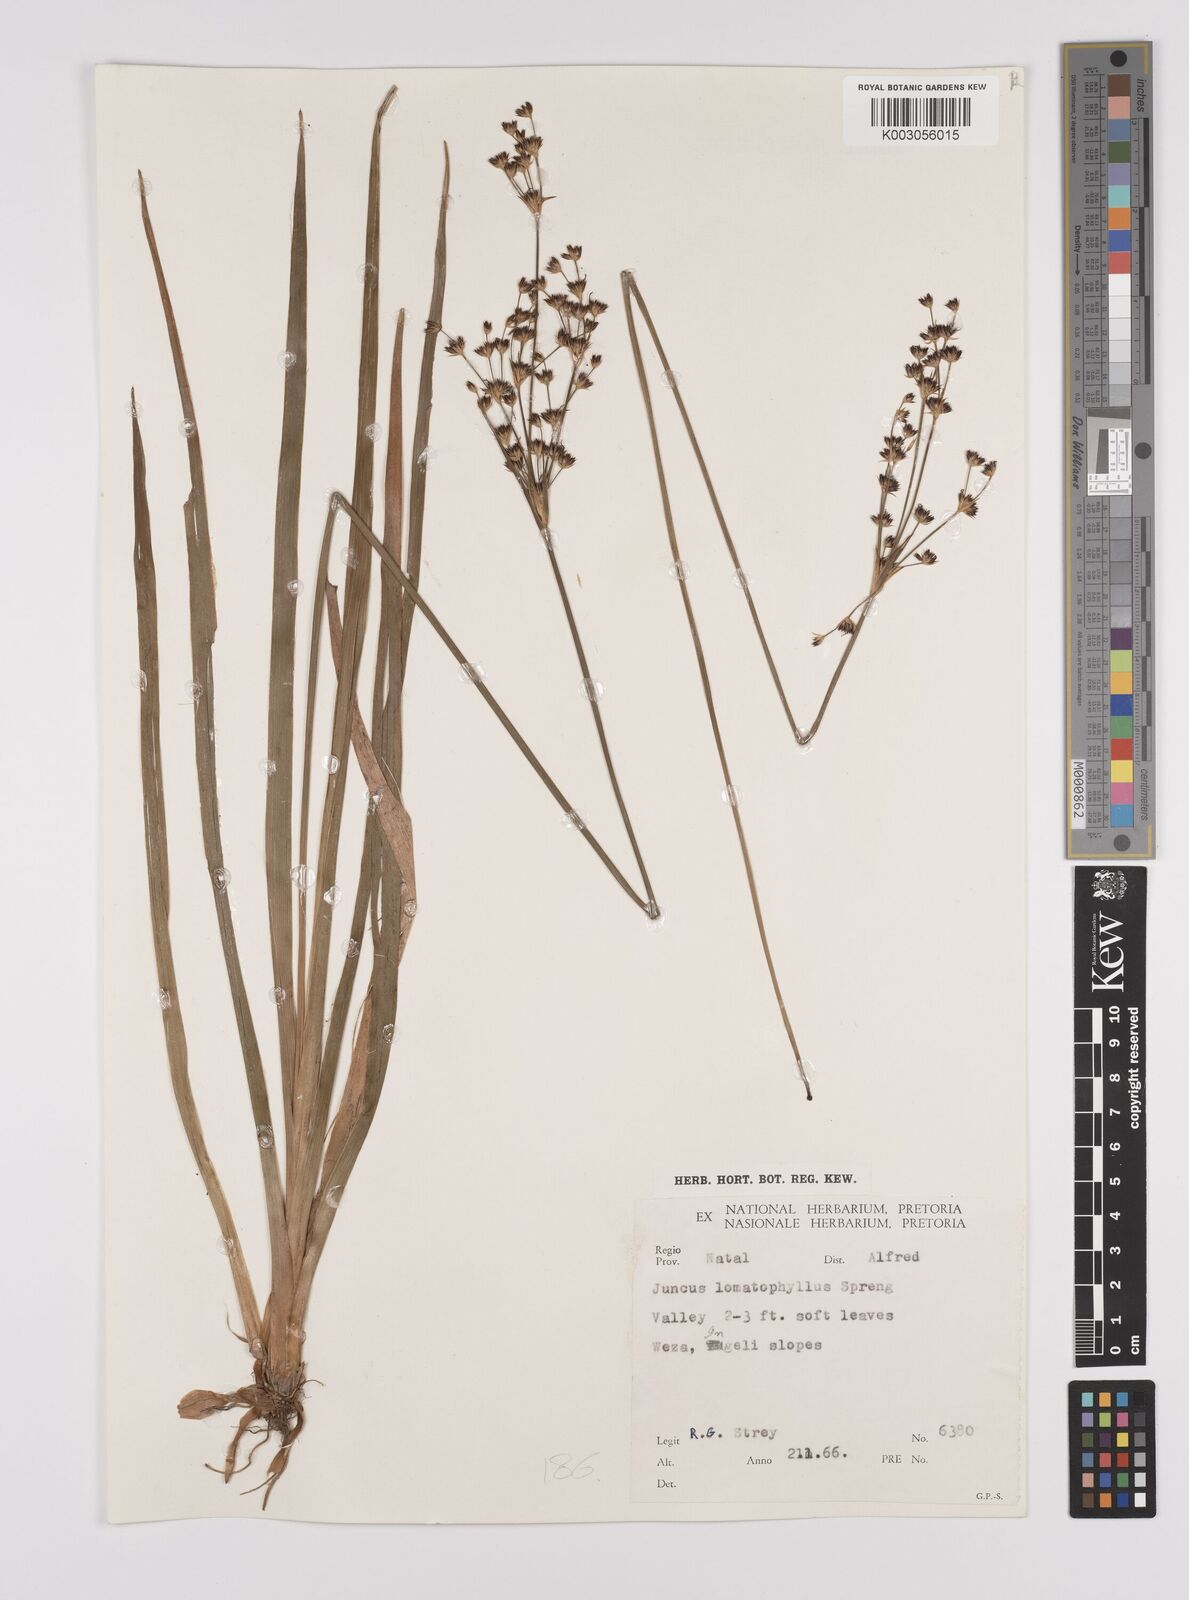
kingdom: Plantae
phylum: Tracheophyta
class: Liliopsida
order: Poales
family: Juncaceae
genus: Juncus
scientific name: Juncus lomatophyllus
